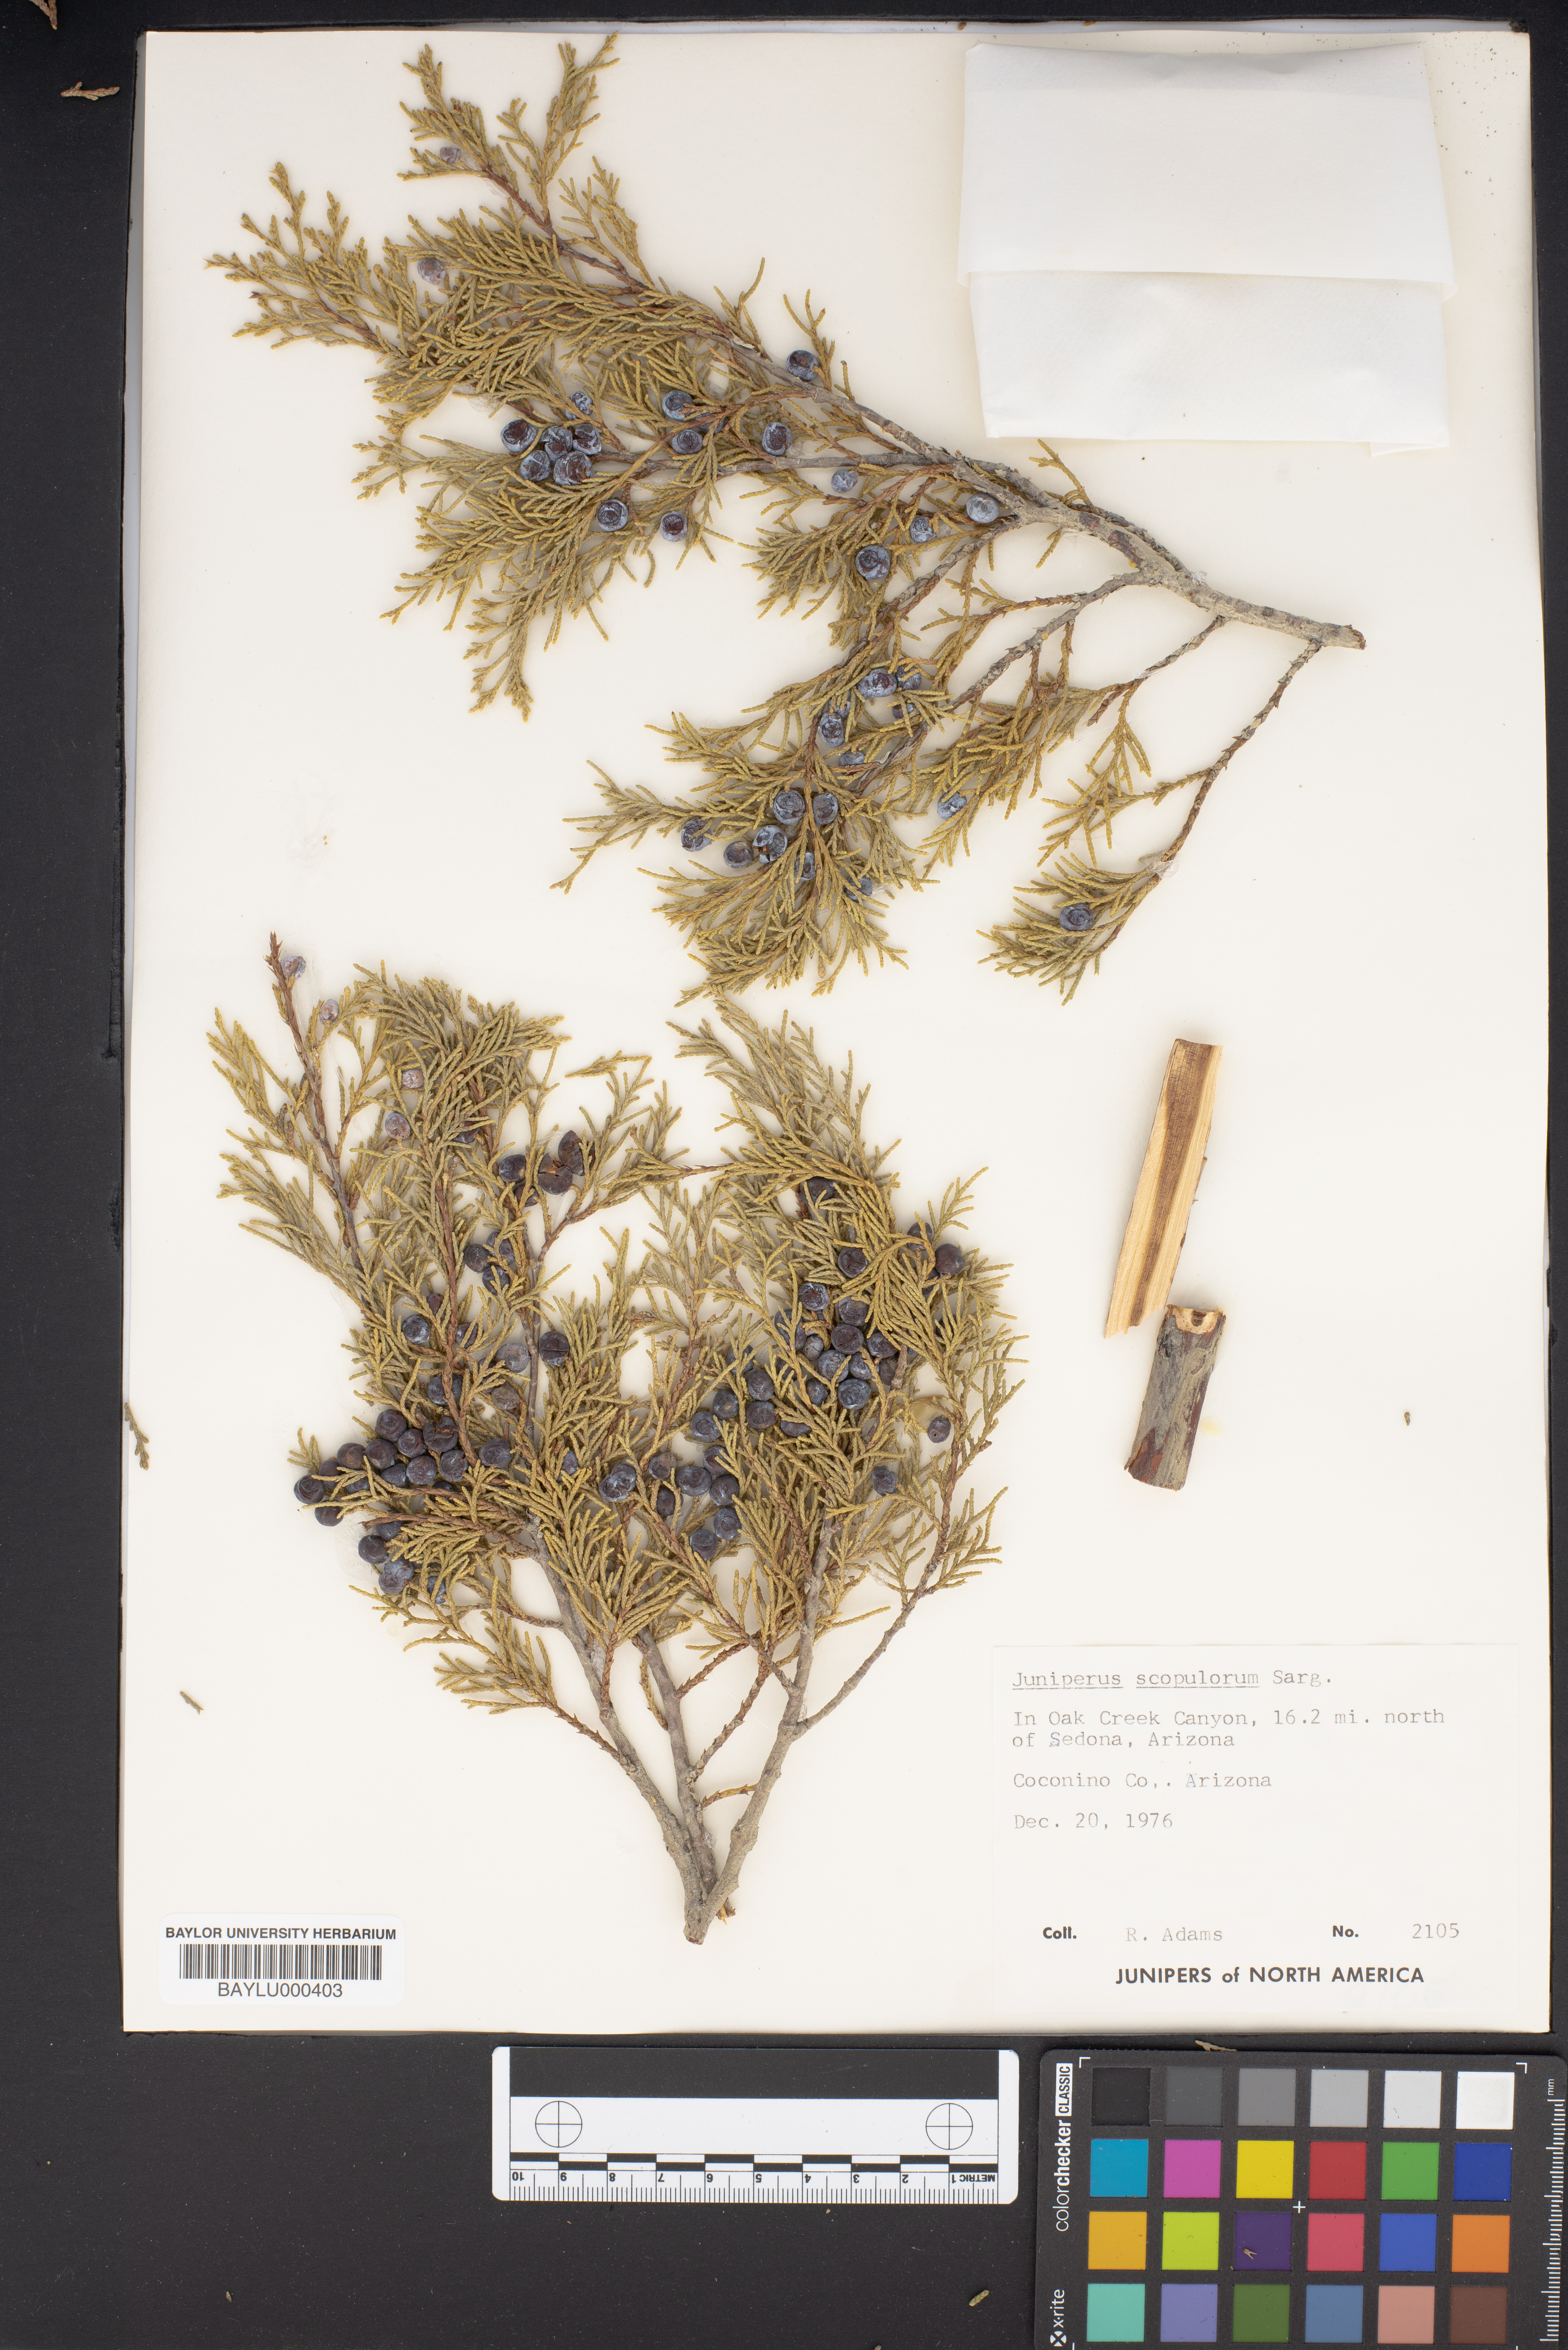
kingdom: Plantae
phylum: Tracheophyta
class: Pinopsida
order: Pinales
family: Cupressaceae
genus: Juniperus
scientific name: Juniperus scopulorum
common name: Rocky mountain juniper
